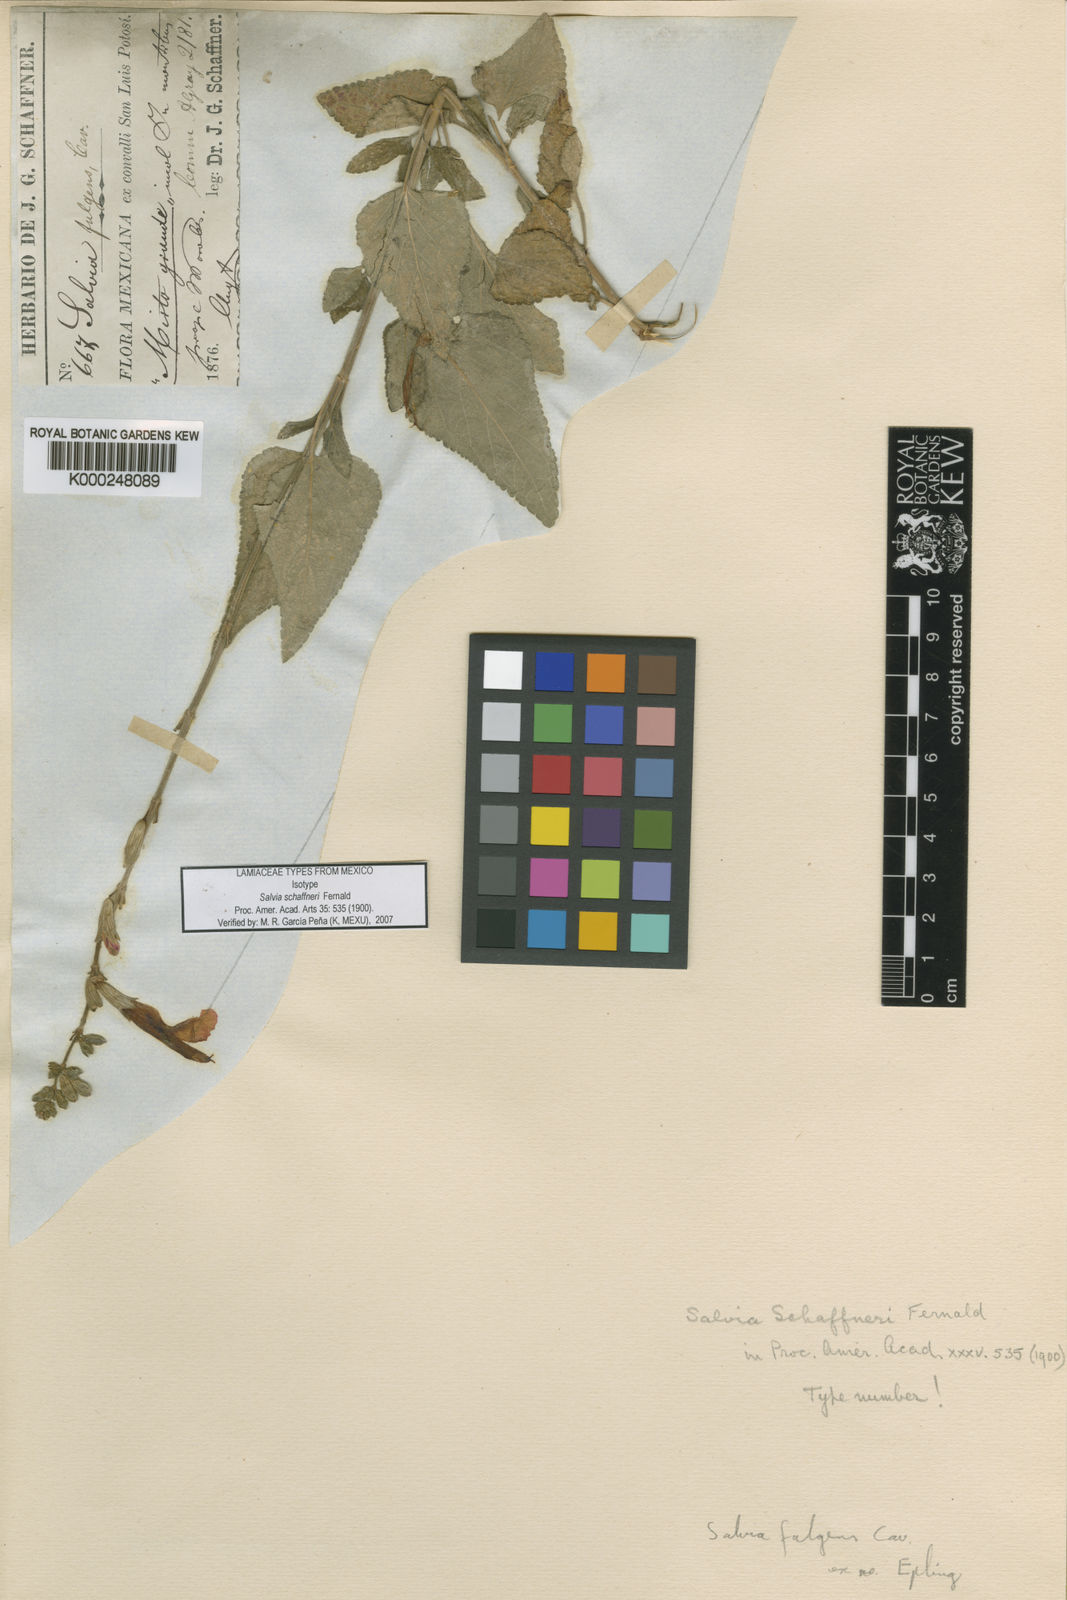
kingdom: Plantae
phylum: Tracheophyta
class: Magnoliopsida
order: Lamiales
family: Lamiaceae
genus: Salvia
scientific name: Salvia fulgens
